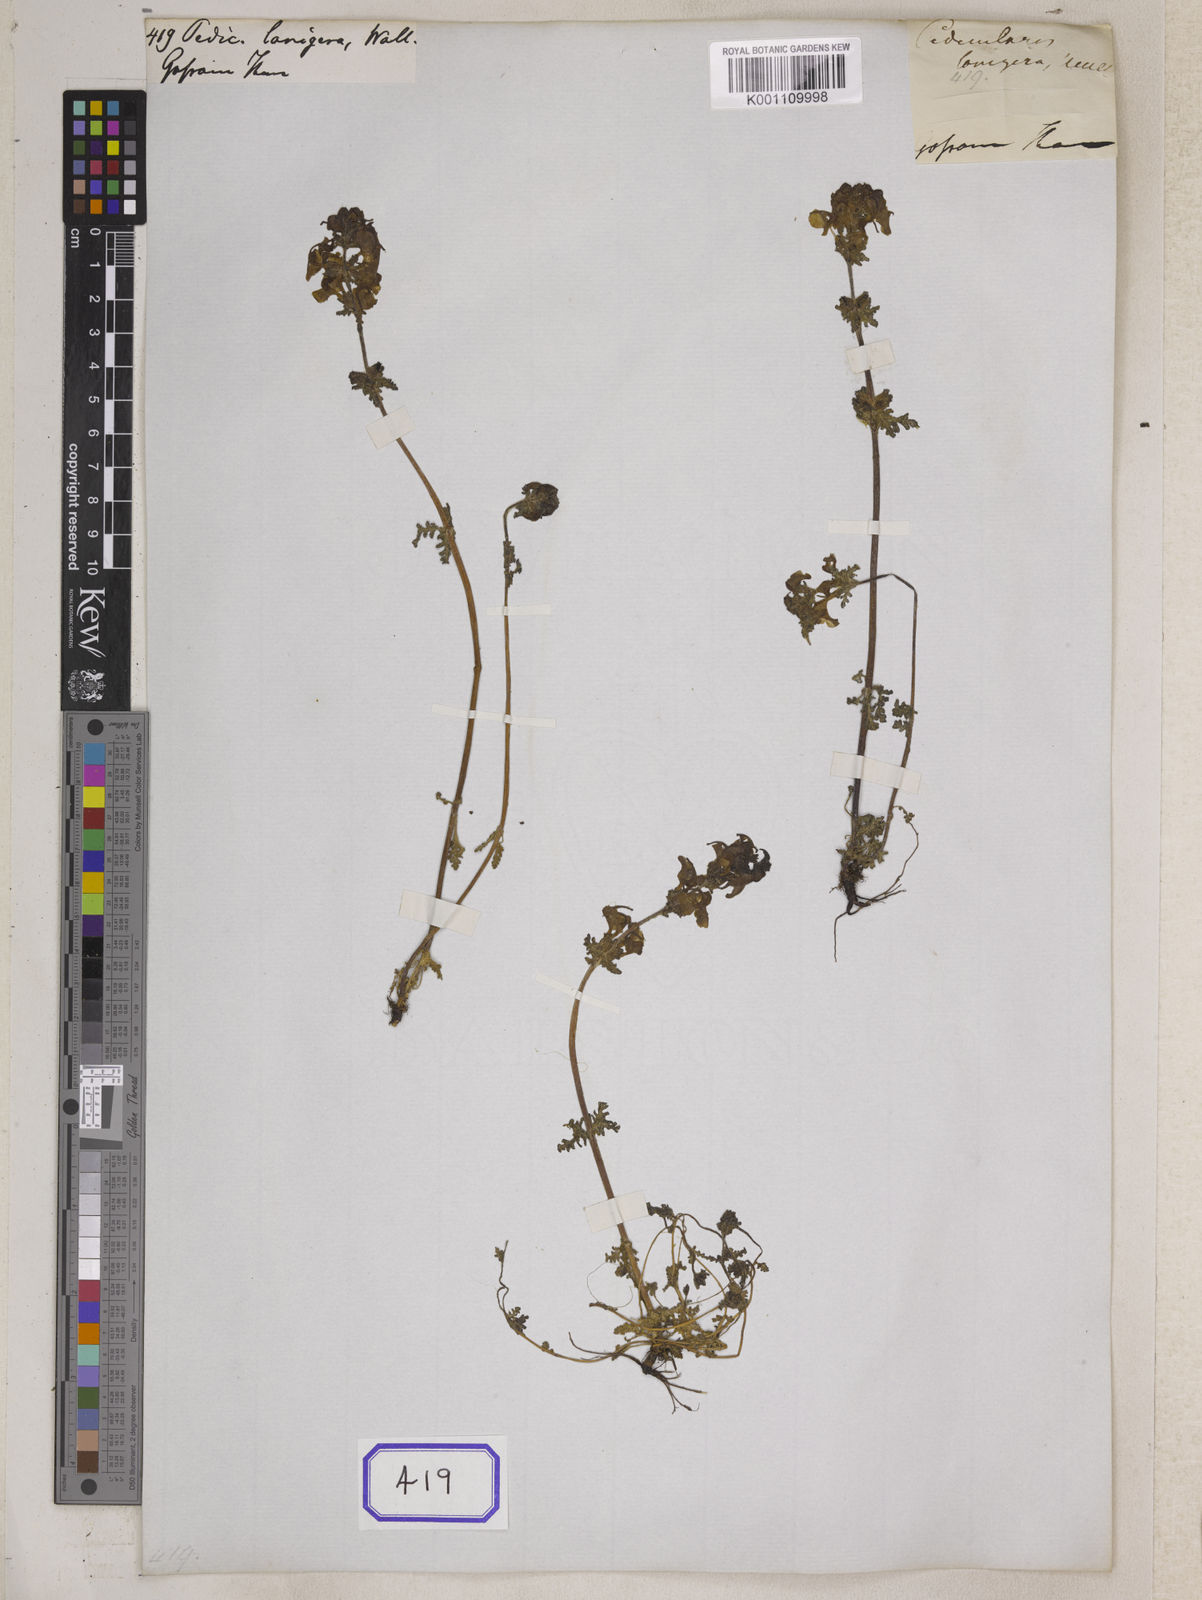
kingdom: Plantae
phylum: Tracheophyta
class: Magnoliopsida
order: Lamiales
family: Orobanchaceae
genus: Pedicularis
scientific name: Pedicularis brevifolia
